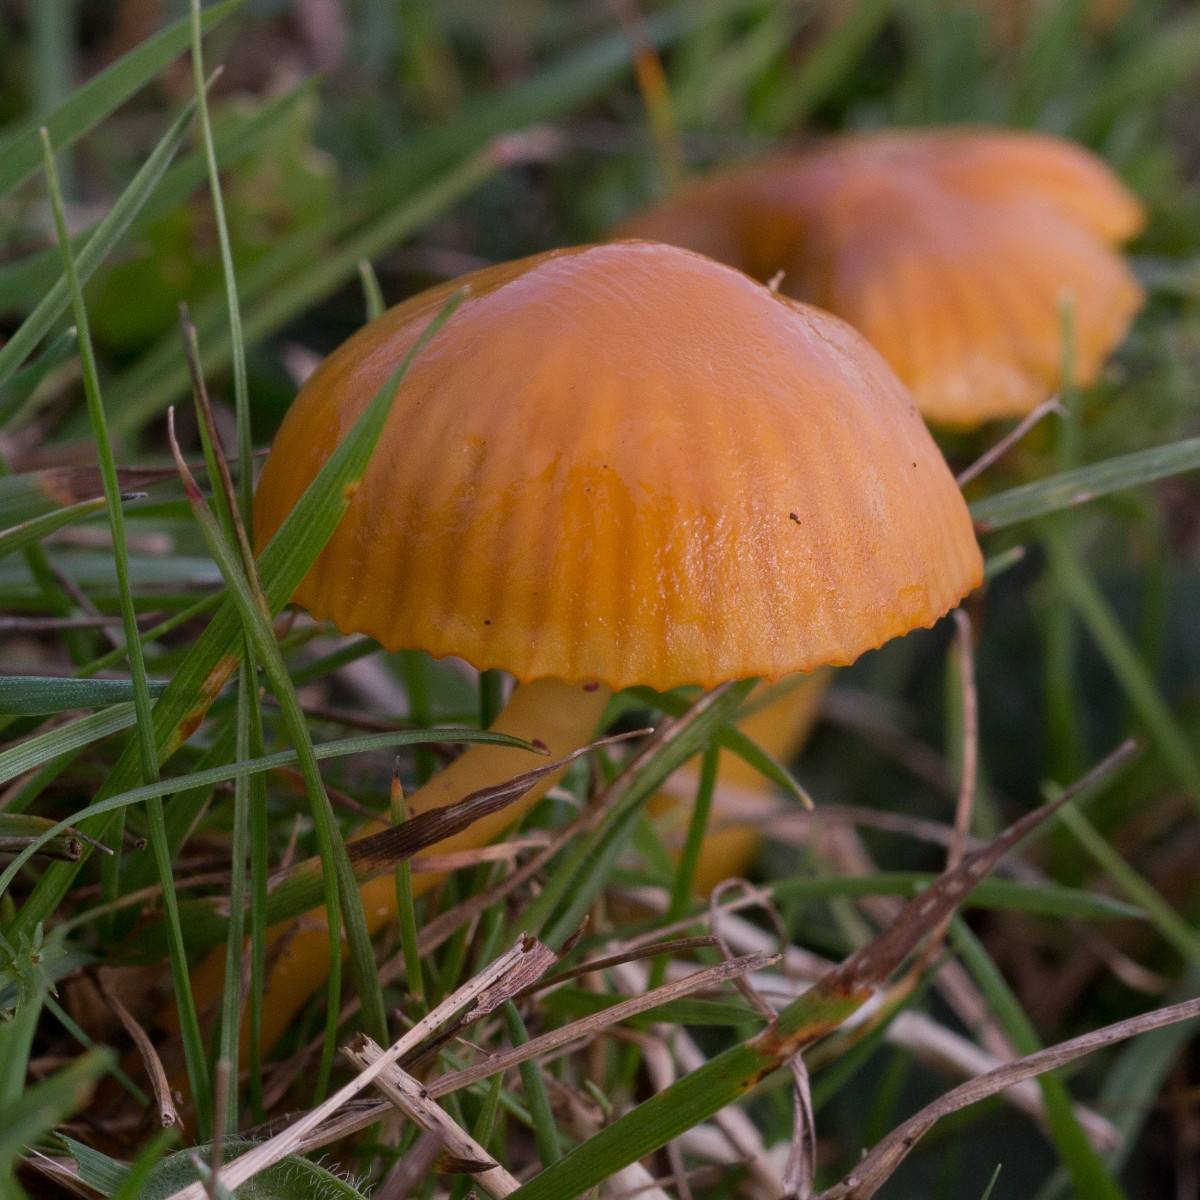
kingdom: Fungi
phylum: Basidiomycota
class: Agaricomycetes
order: Agaricales
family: Hygrophoraceae
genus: Gliophorus
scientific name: Gliophorus psittacinus
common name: papegøje-vokshat
